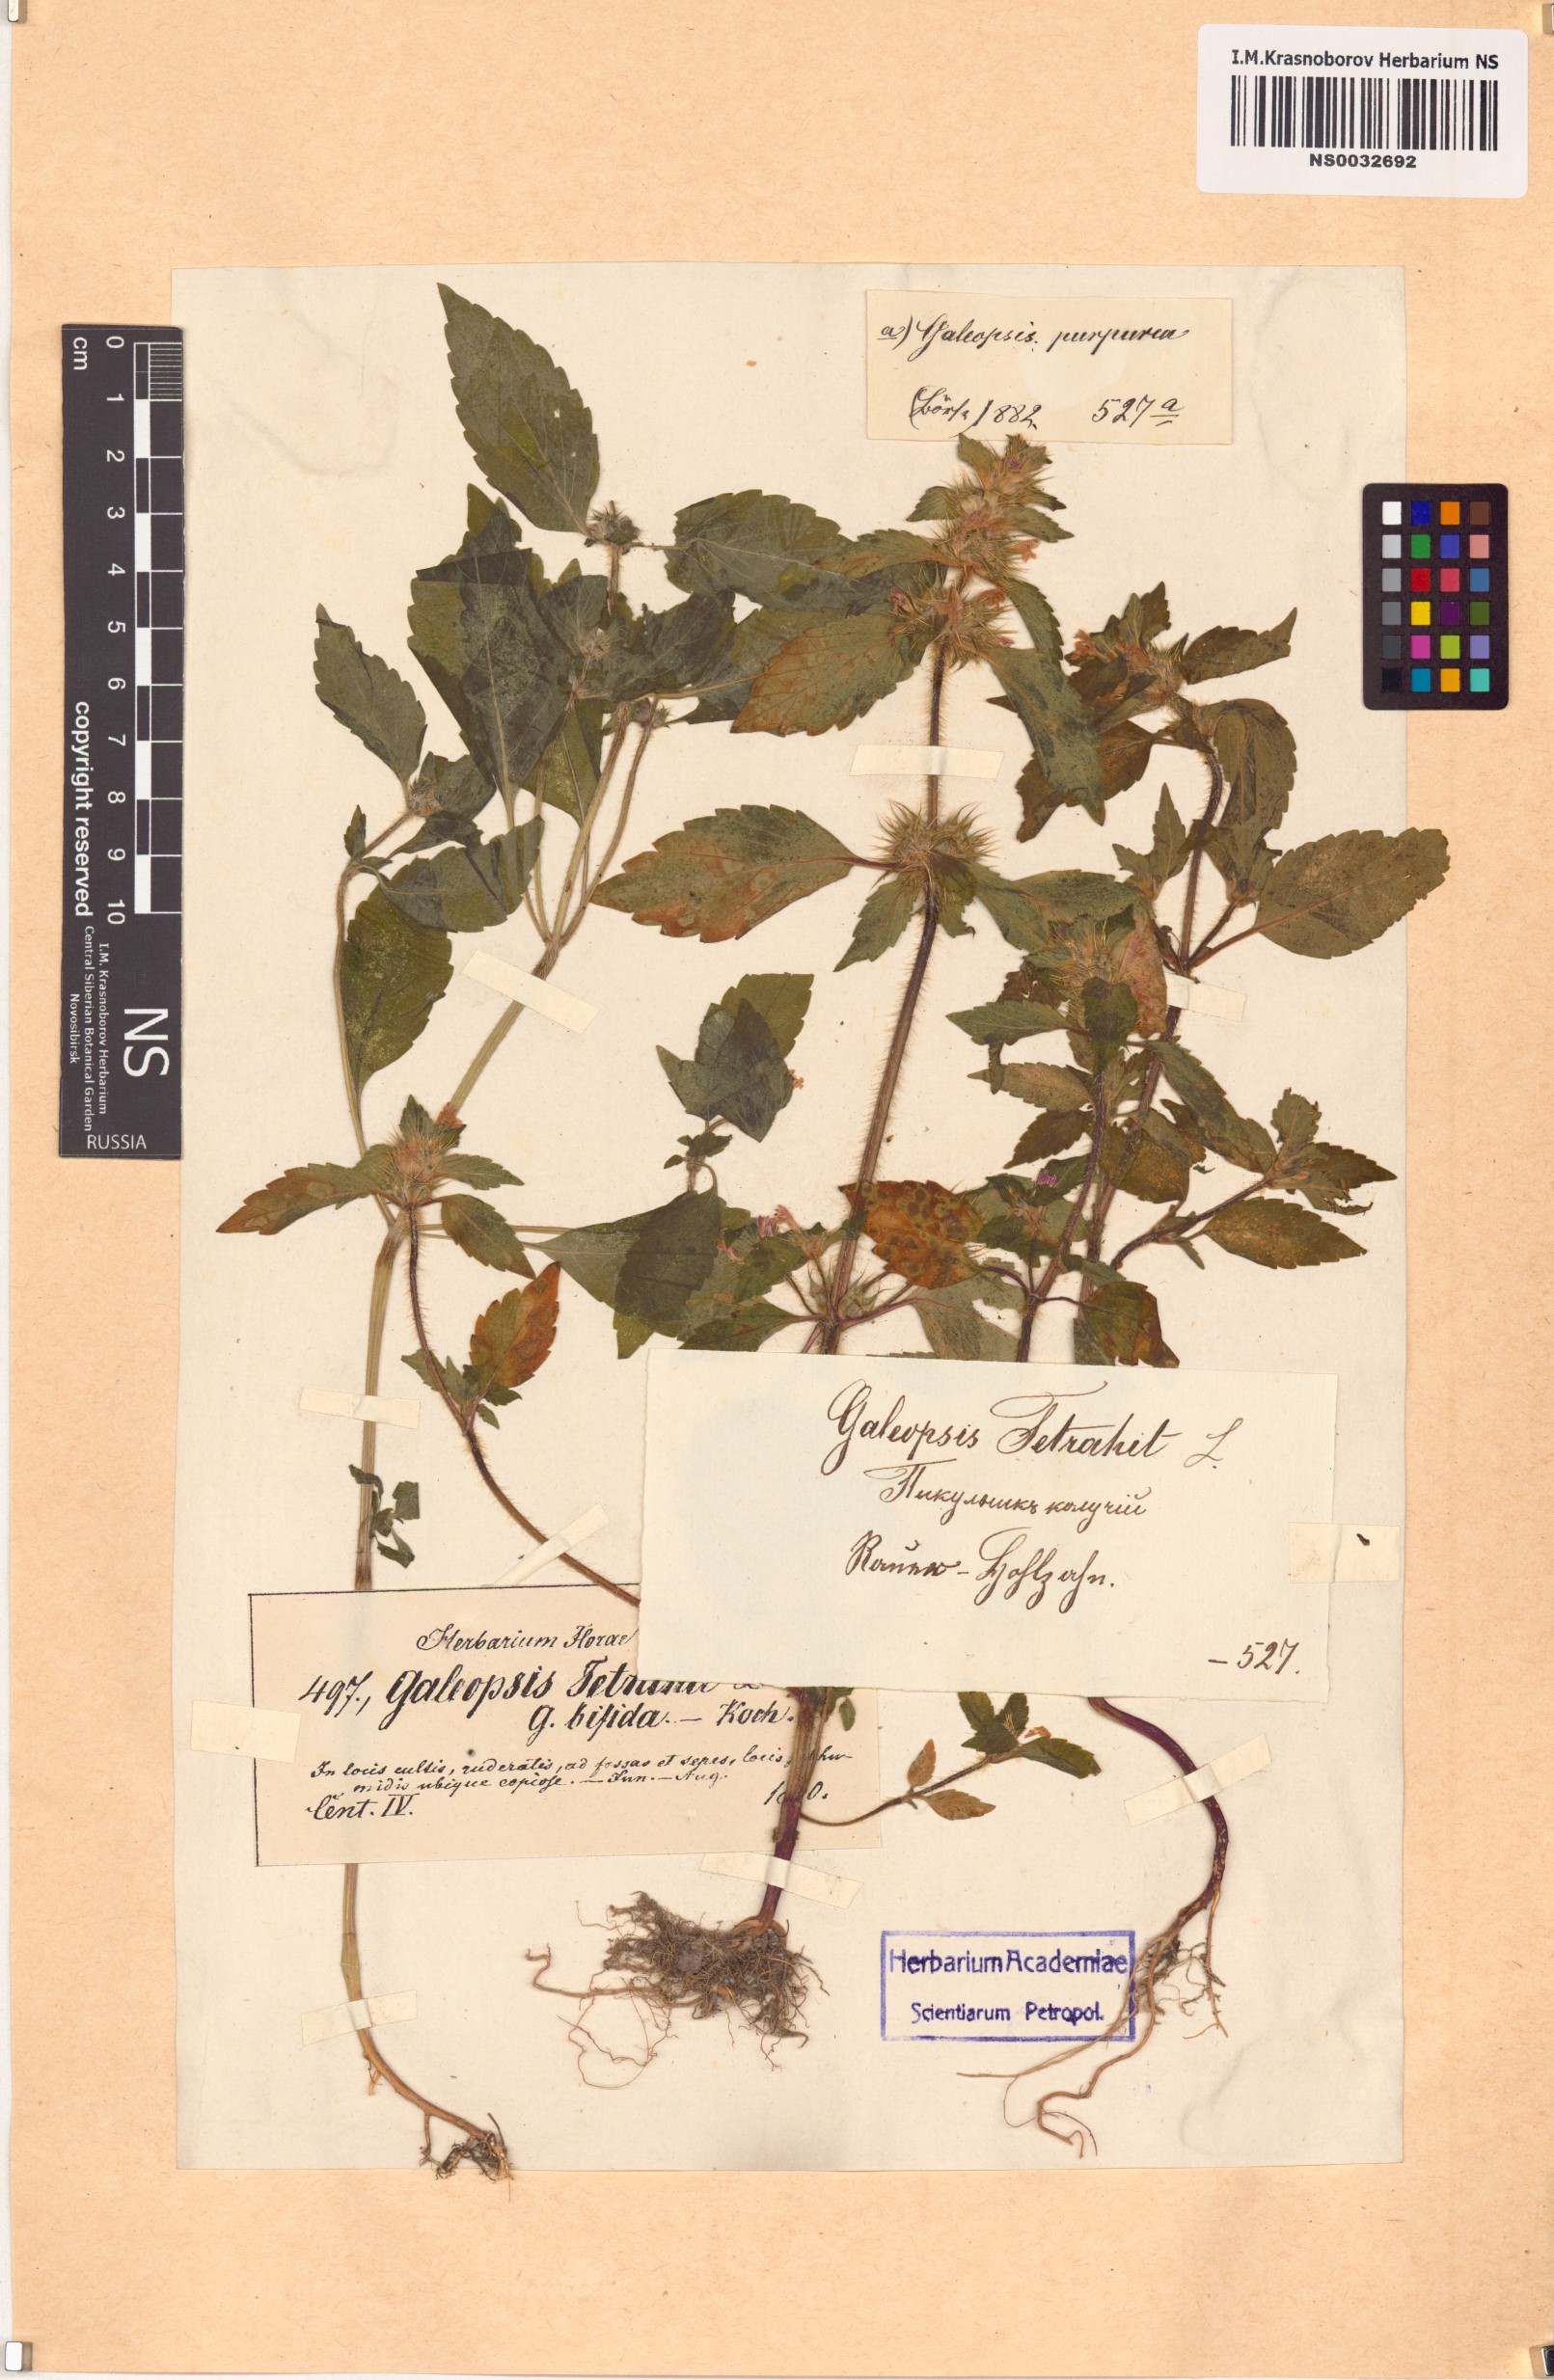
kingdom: Plantae
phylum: Tracheophyta
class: Magnoliopsida
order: Lamiales
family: Lamiaceae
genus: Galeopsis
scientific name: Galeopsis tetrahit
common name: Common hemp-nettle
